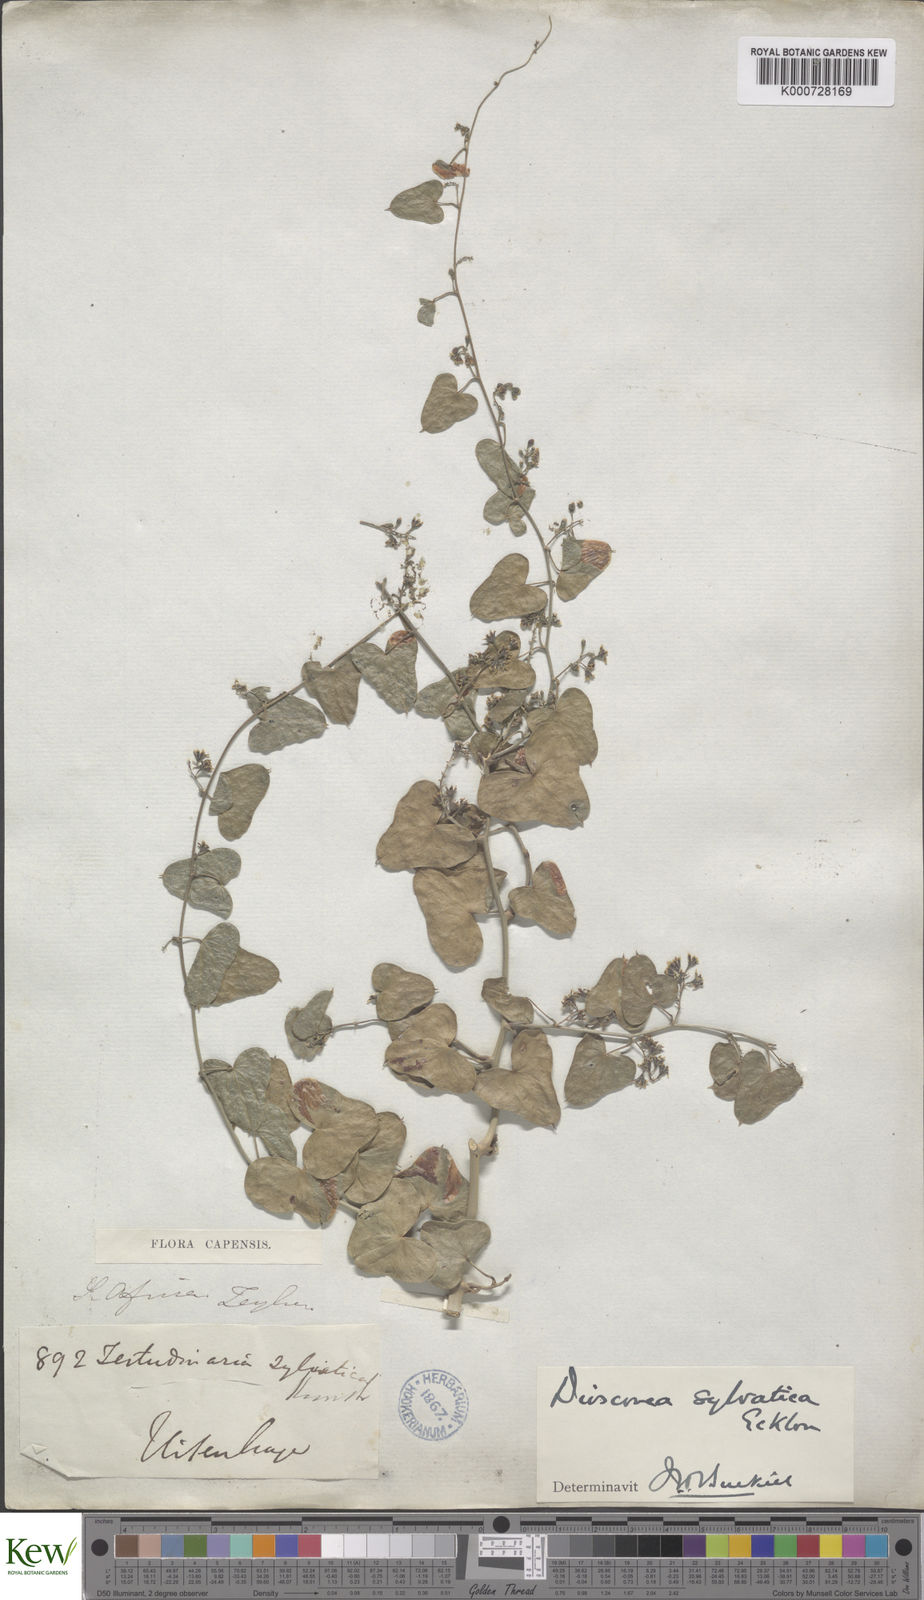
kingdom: Plantae
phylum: Tracheophyta
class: Liliopsida
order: Dioscoreales
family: Dioscoreaceae
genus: Dioscorea
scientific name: Dioscorea sylvatica
